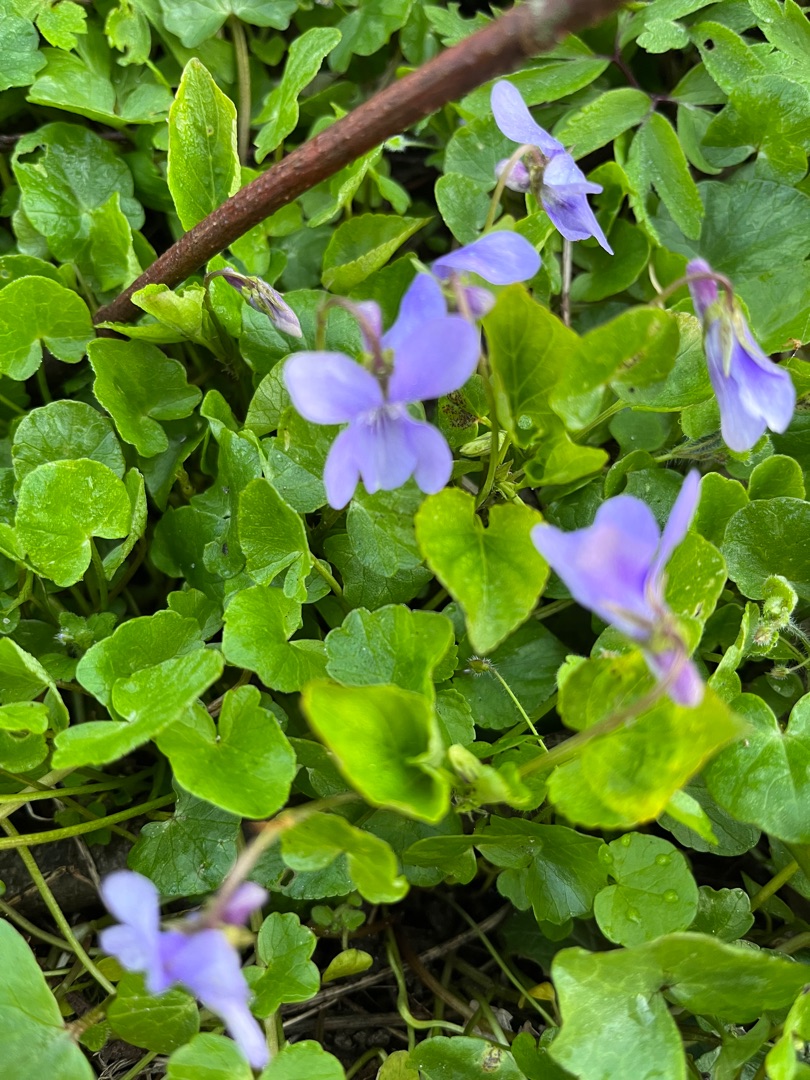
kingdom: Plantae
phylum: Tracheophyta
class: Magnoliopsida
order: Malpighiales
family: Violaceae
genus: Viola
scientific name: Viola reichenbachiana
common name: Skov-viol
